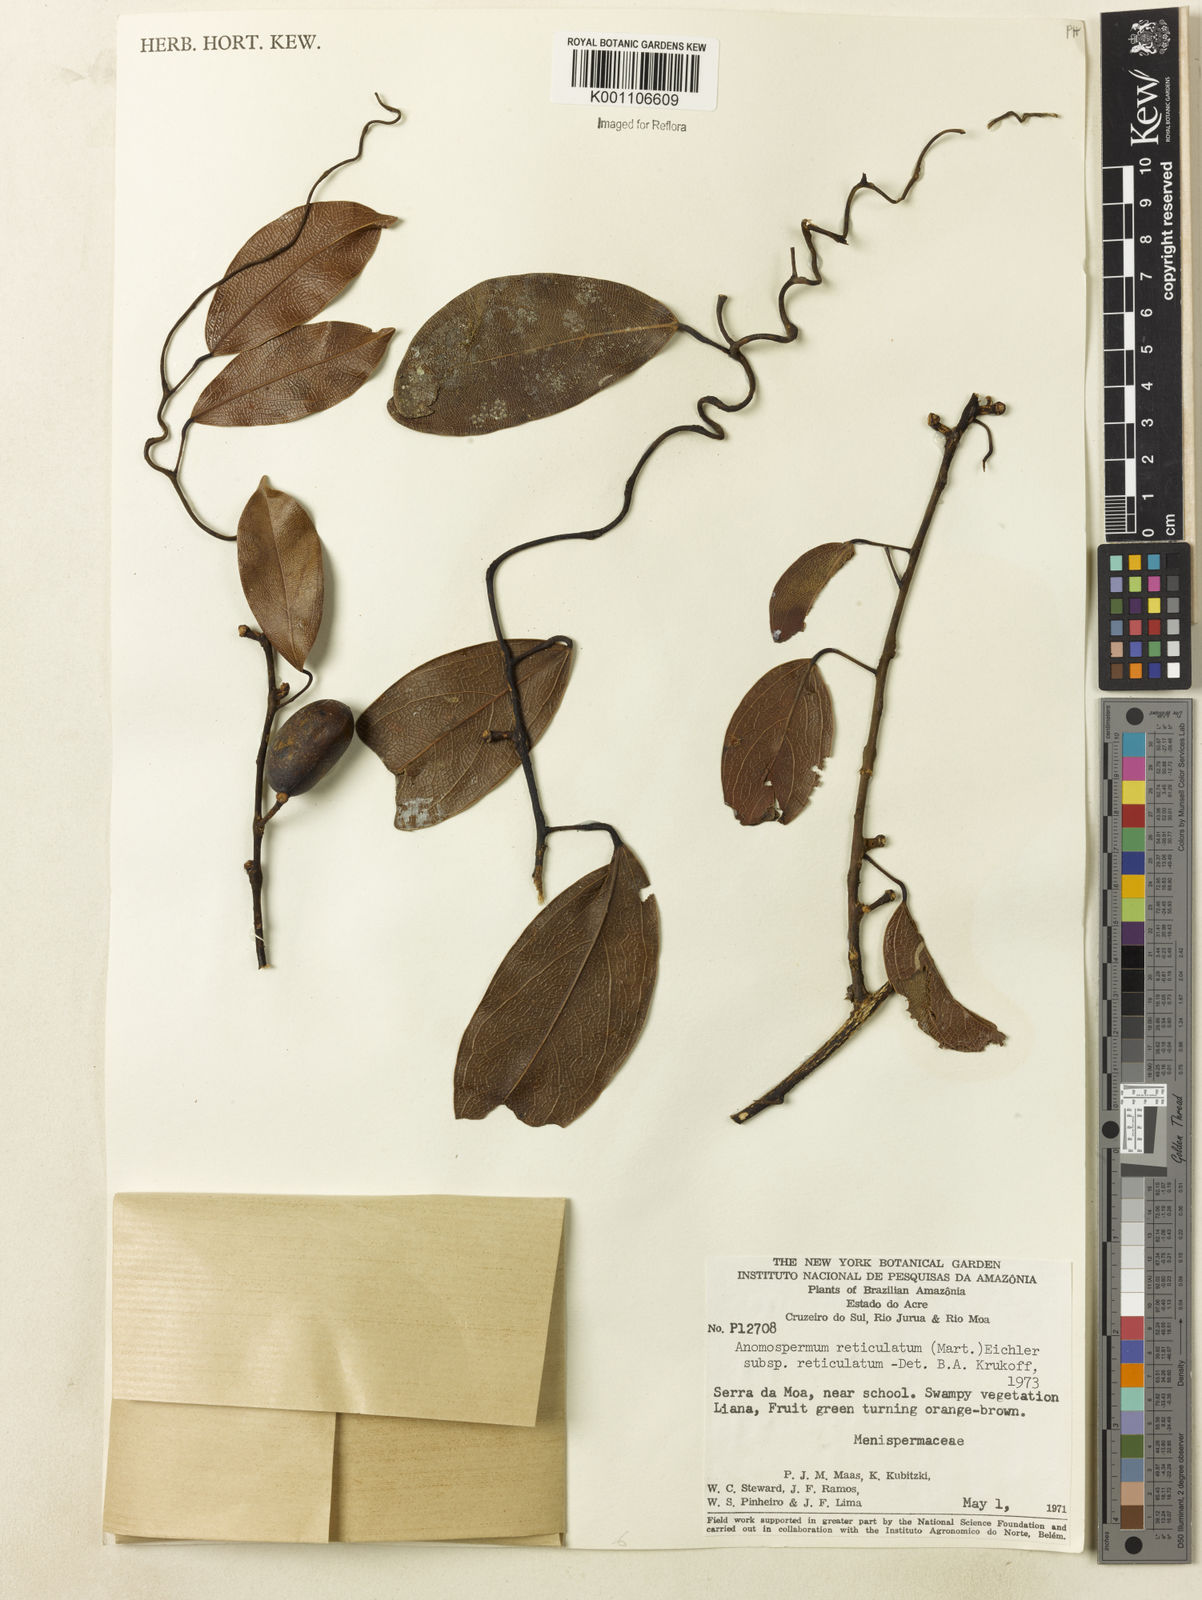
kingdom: Plantae
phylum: Tracheophyta
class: Magnoliopsida
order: Ranunculales
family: Menispermaceae
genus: Anomospermum
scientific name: Anomospermum reticulatum
